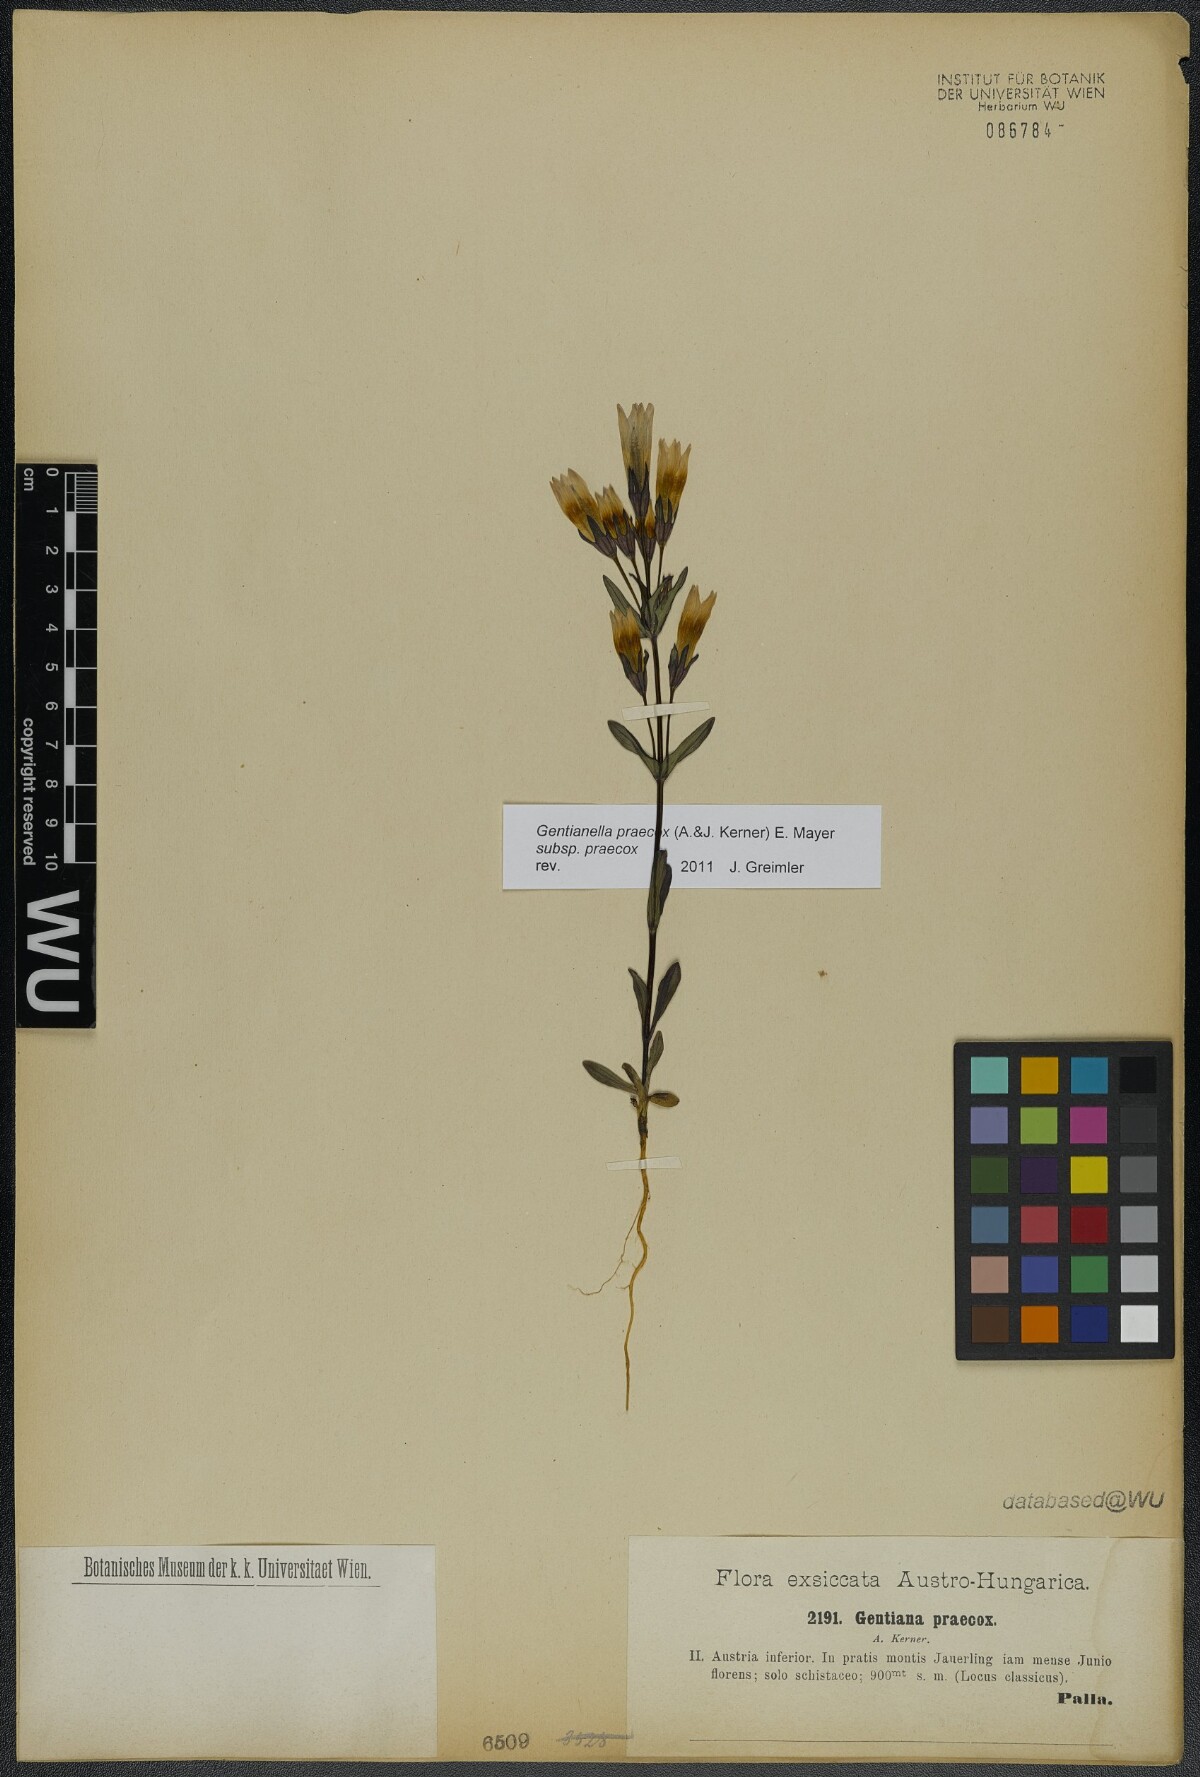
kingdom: Plantae
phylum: Tracheophyta
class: Magnoliopsida
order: Gentianales
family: Gentianaceae
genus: Gentianella
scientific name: Gentianella praecox
